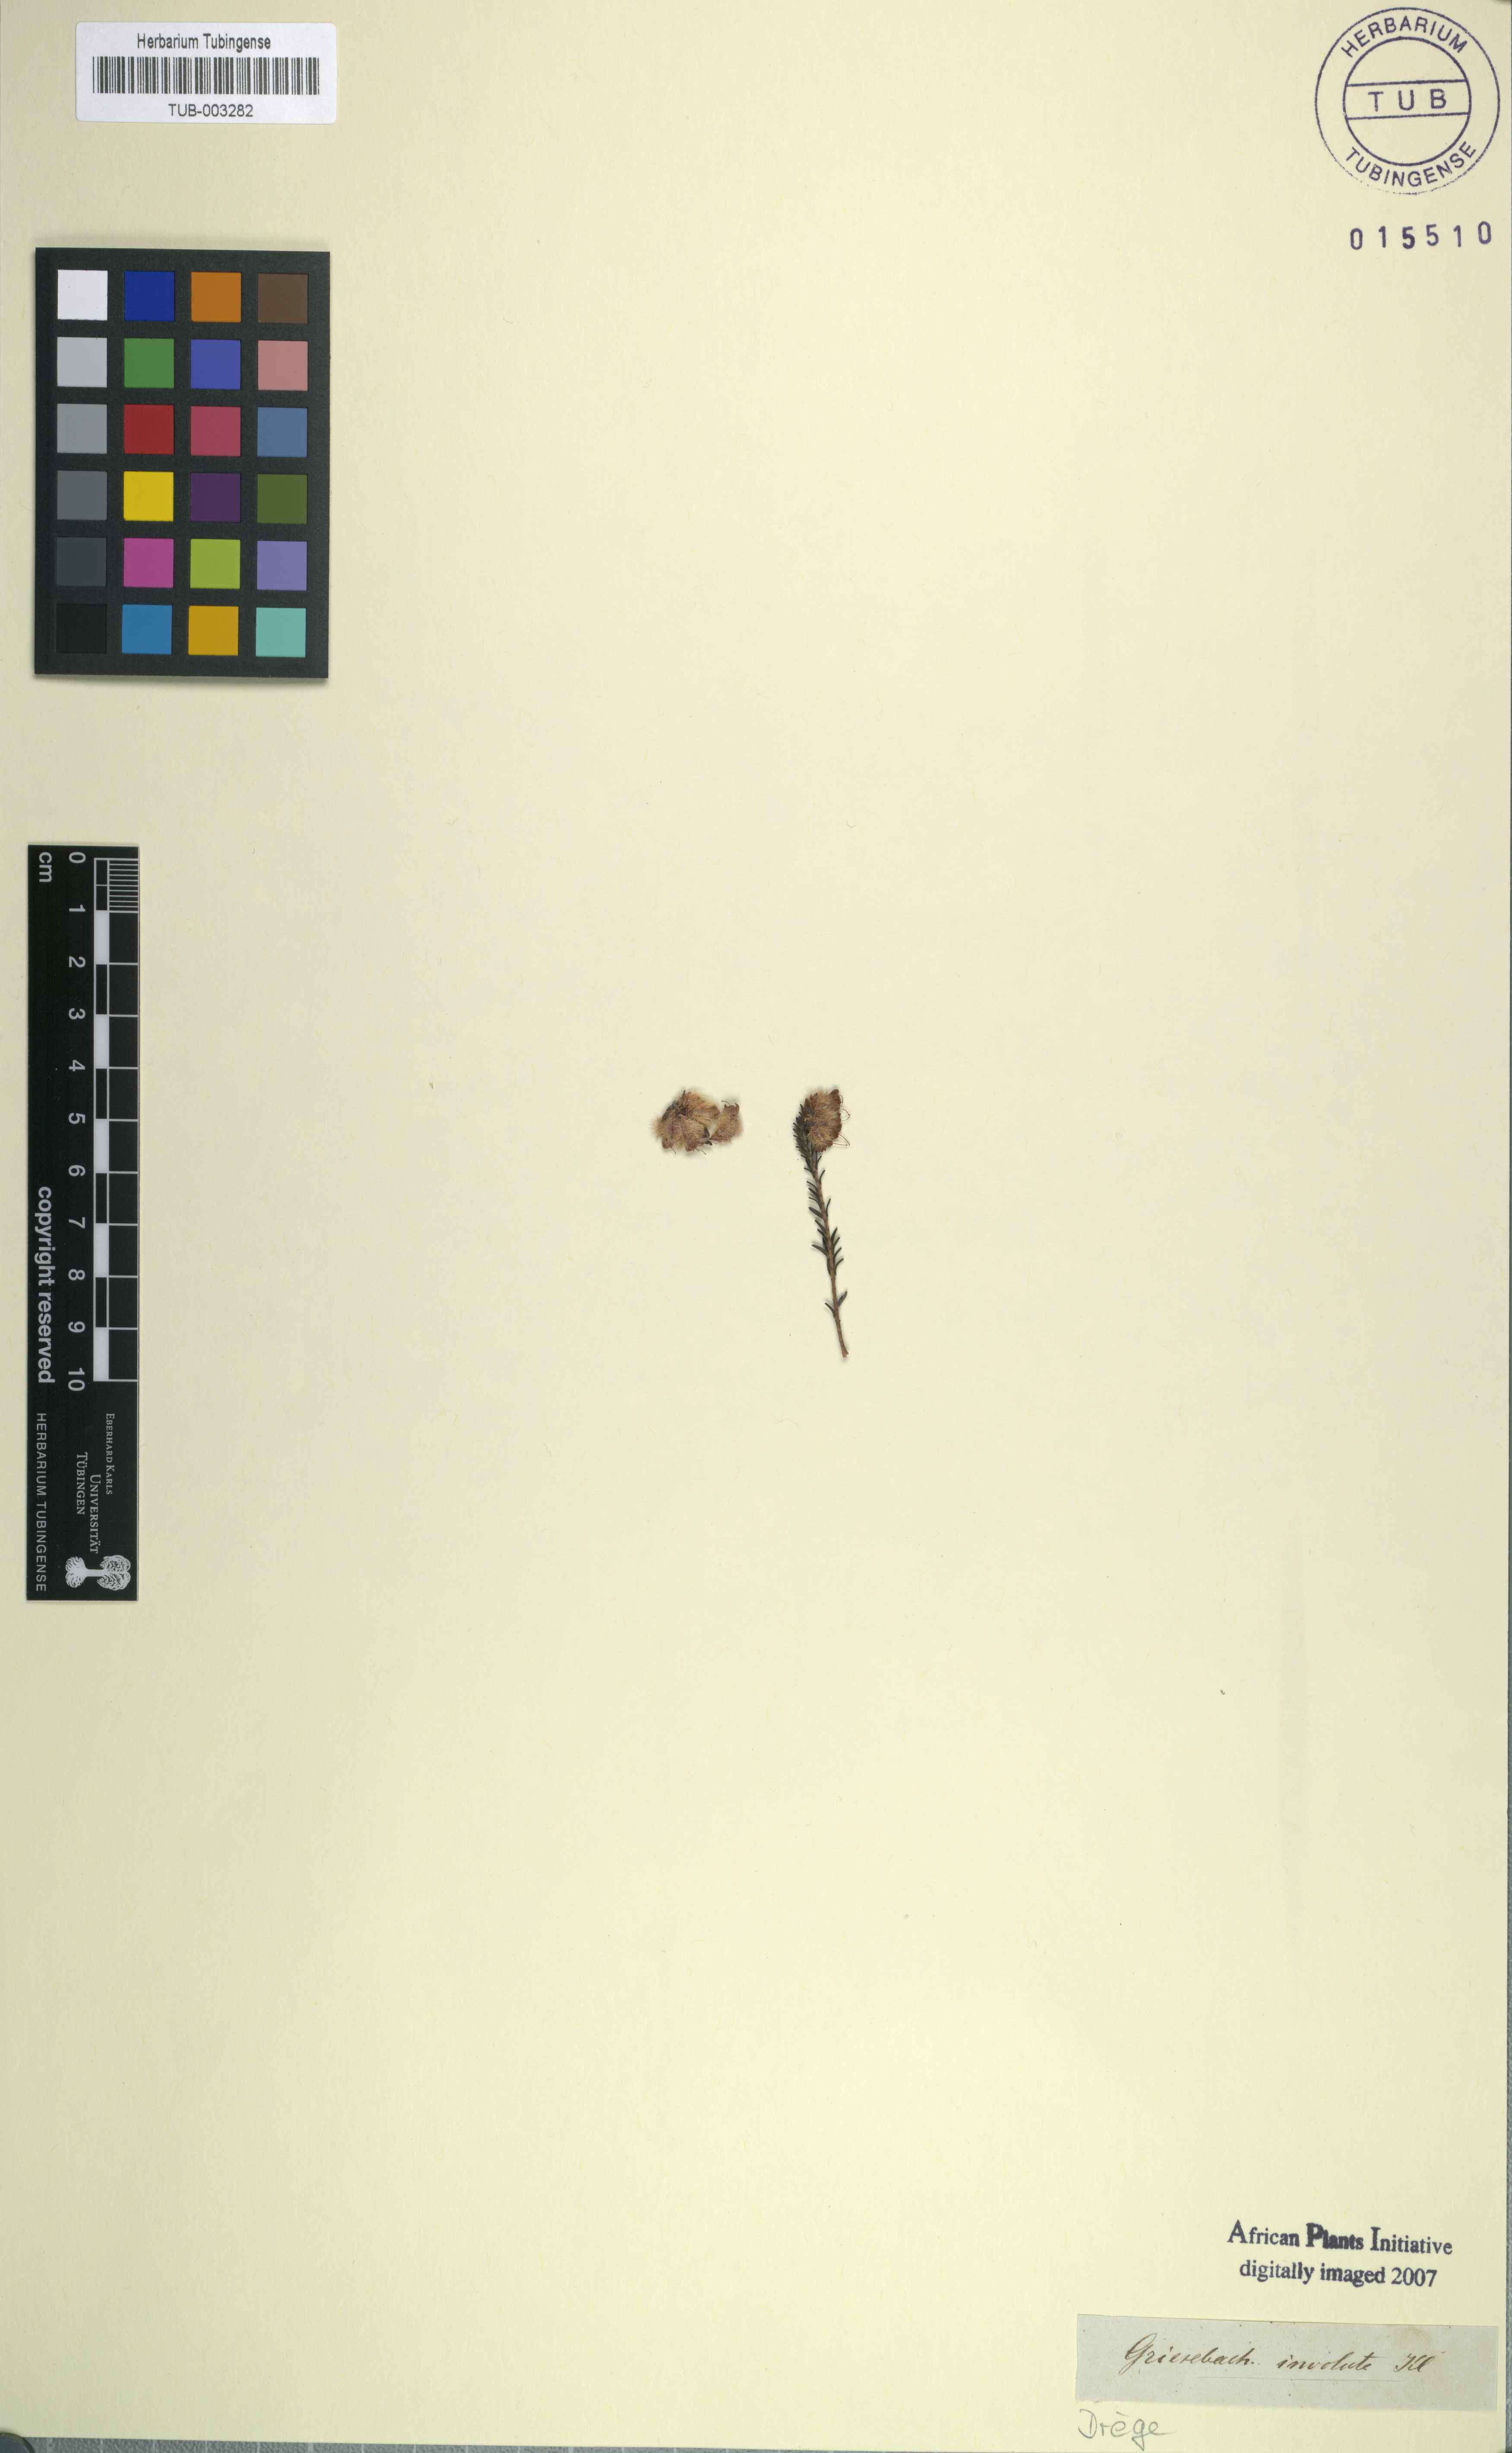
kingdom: Plantae
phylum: Tracheophyta
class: Magnoliopsida
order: Ericales
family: Ericaceae
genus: Erica
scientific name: Erica plumosa
